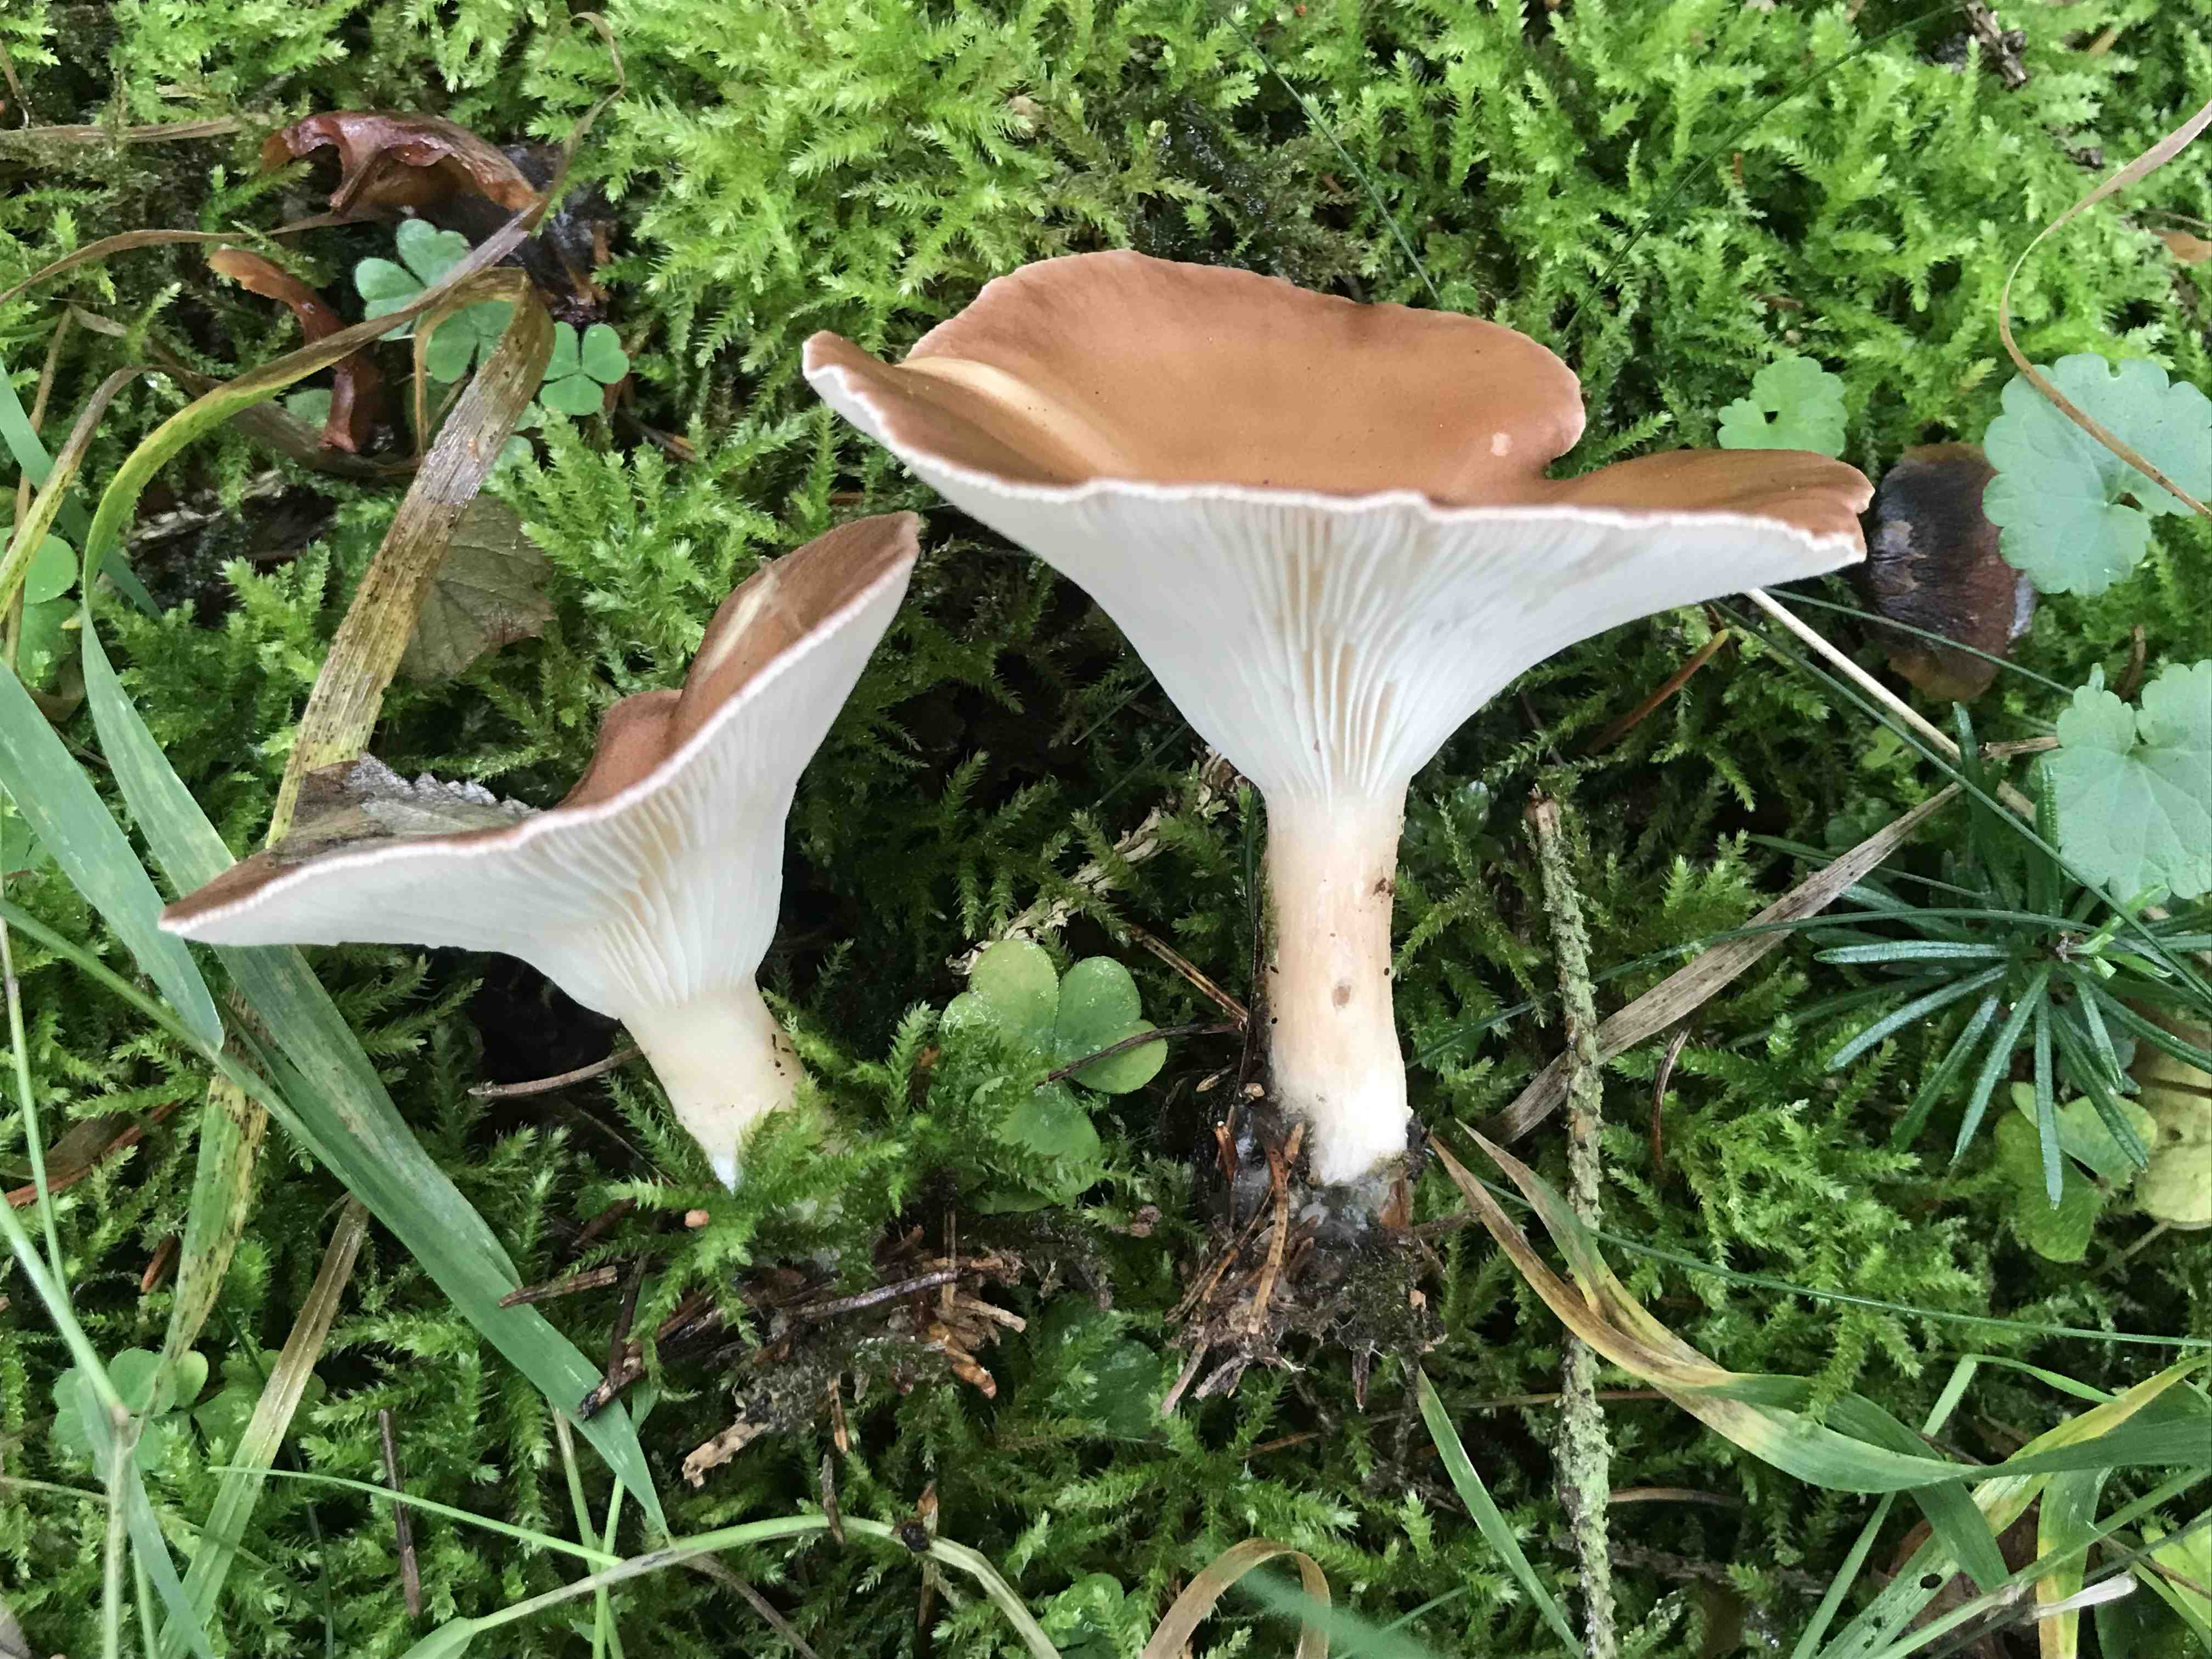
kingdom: Fungi
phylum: Basidiomycota
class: Agaricomycetes
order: Agaricales
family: Tricholomataceae
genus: Infundibulicybe
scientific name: Infundibulicybe
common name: tragthat
